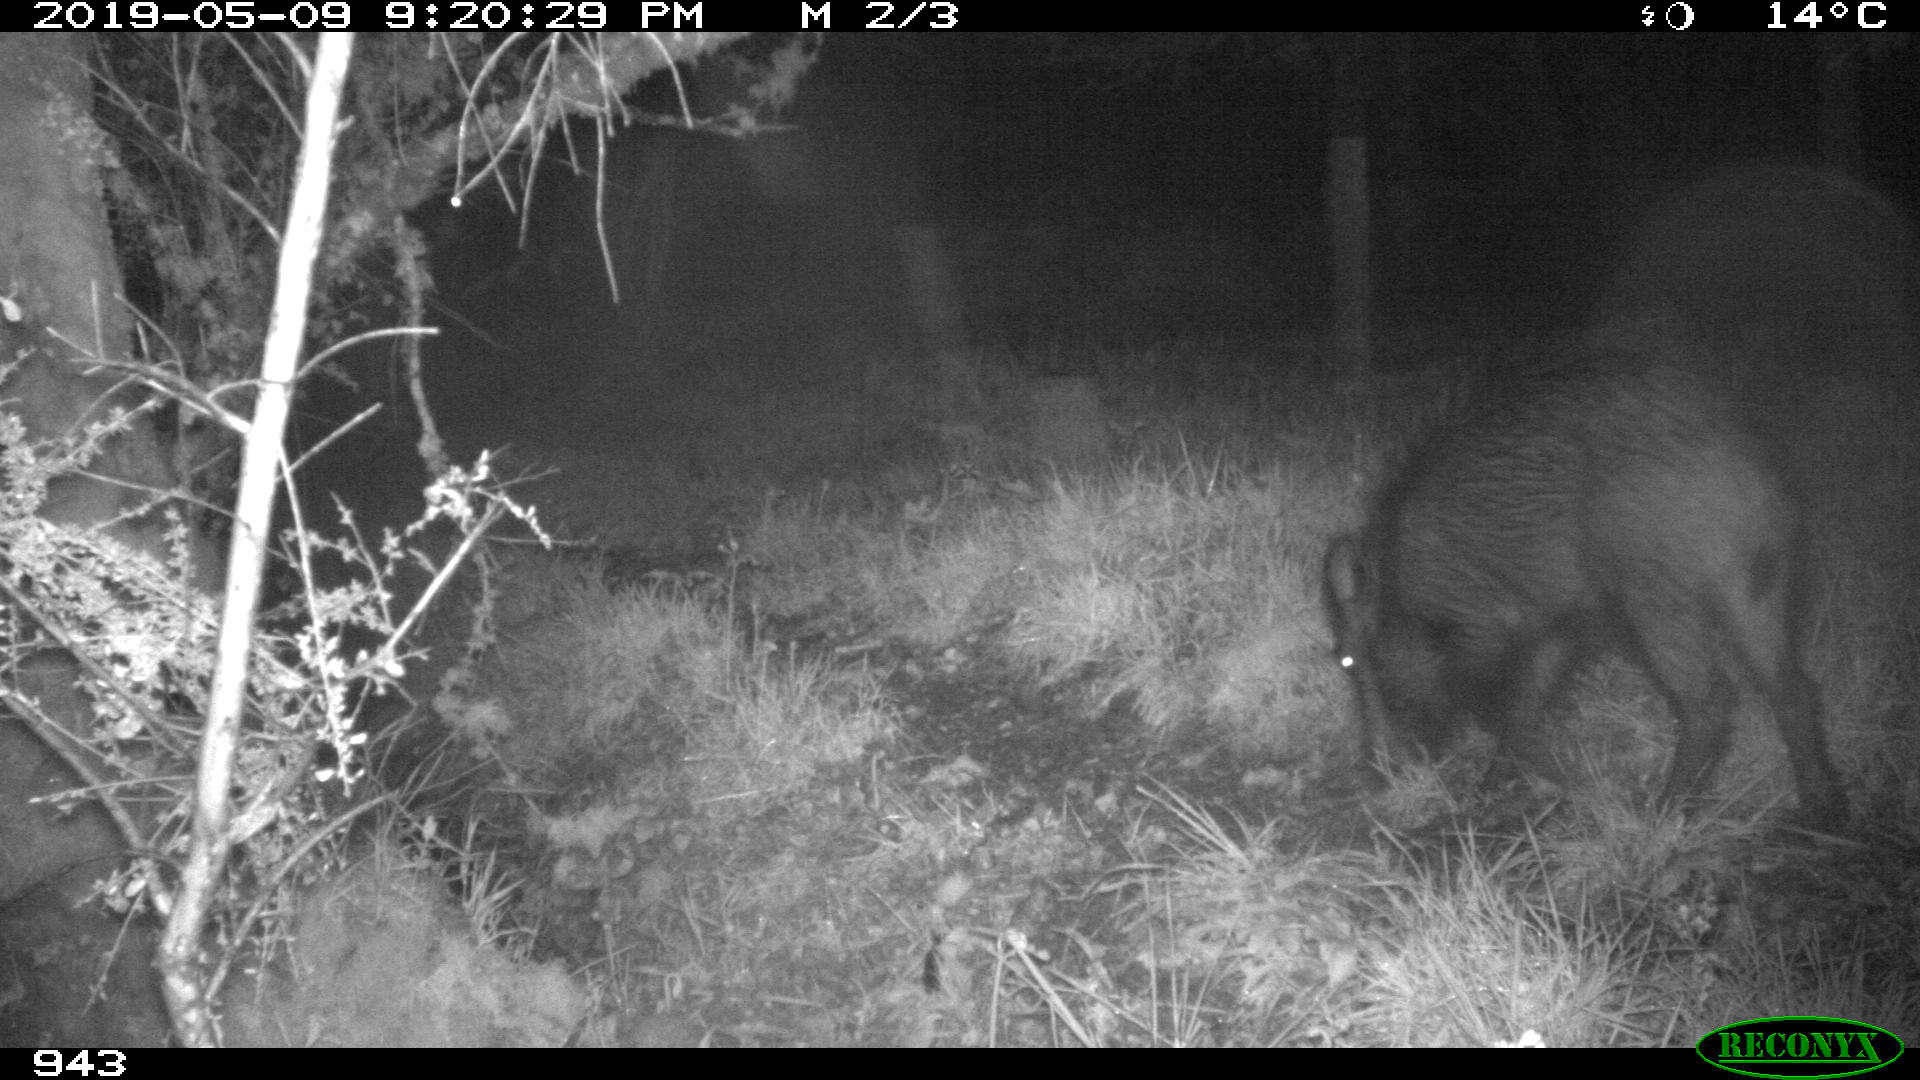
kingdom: Animalia
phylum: Chordata
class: Mammalia
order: Artiodactyla
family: Suidae
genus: Sus
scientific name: Sus scrofa
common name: Wild boar
